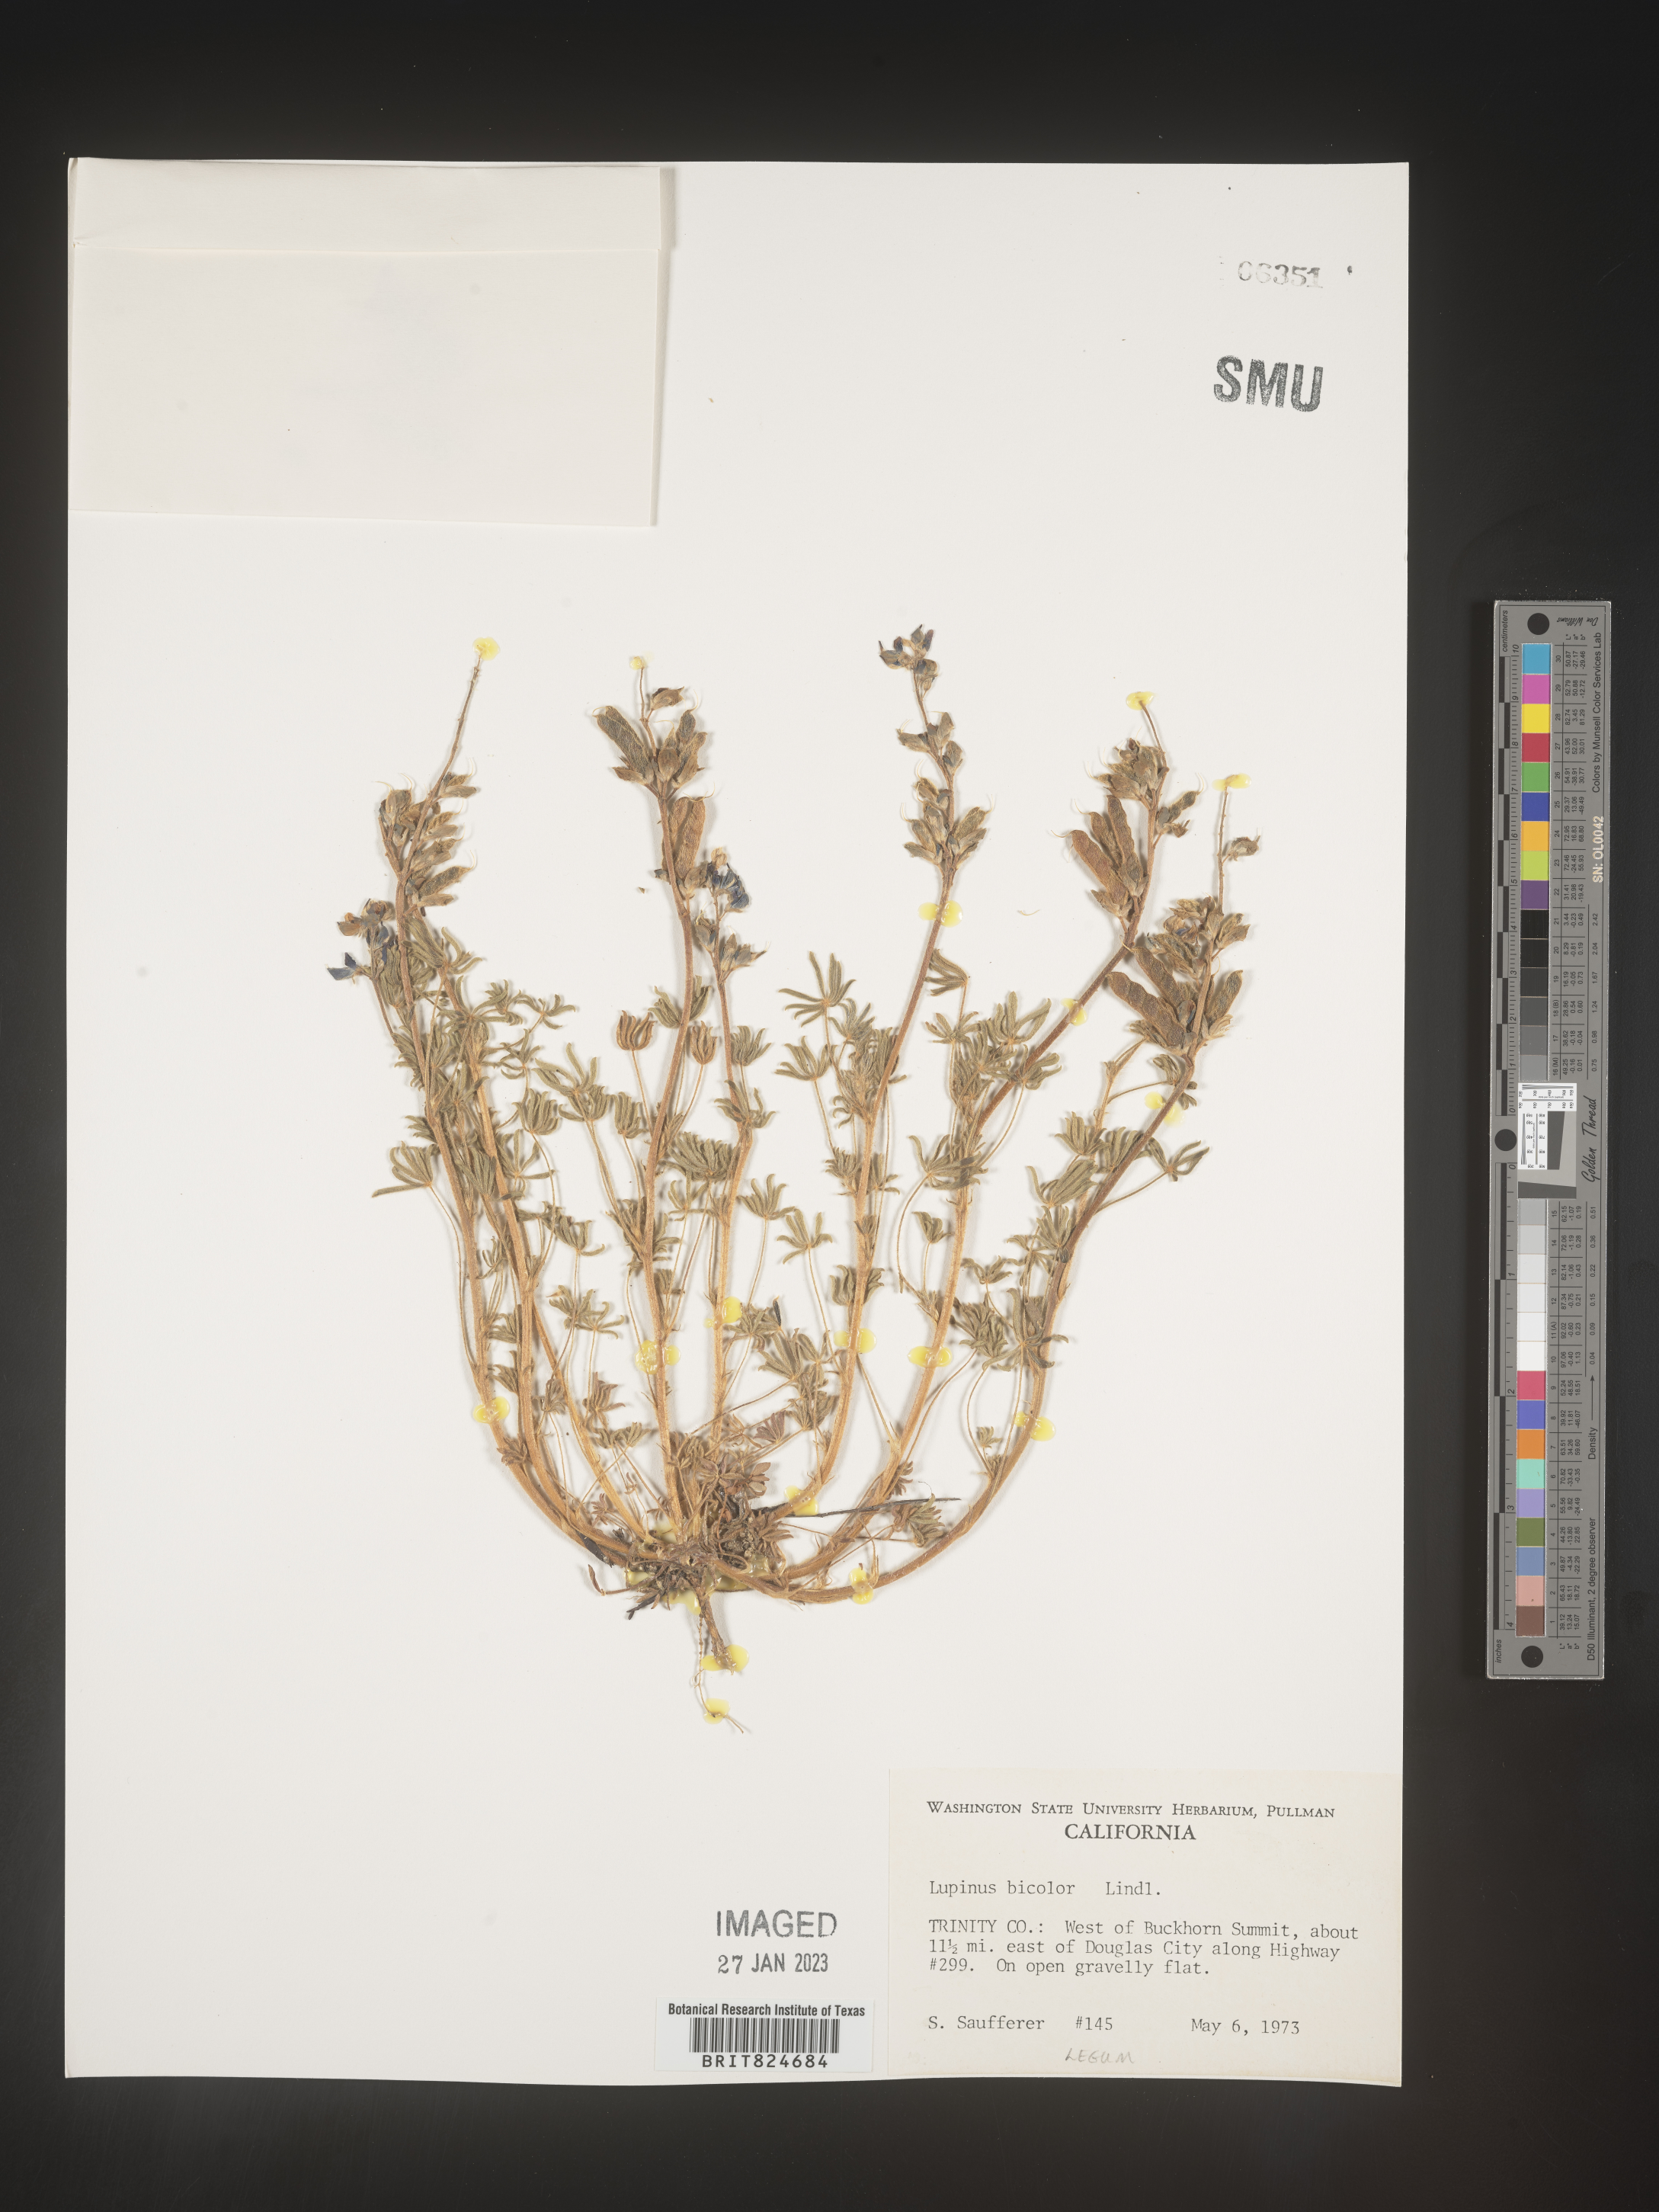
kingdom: Plantae
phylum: Tracheophyta
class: Magnoliopsida
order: Fabales
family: Fabaceae
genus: Lupinus
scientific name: Lupinus bicolor
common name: Miniature lupine
